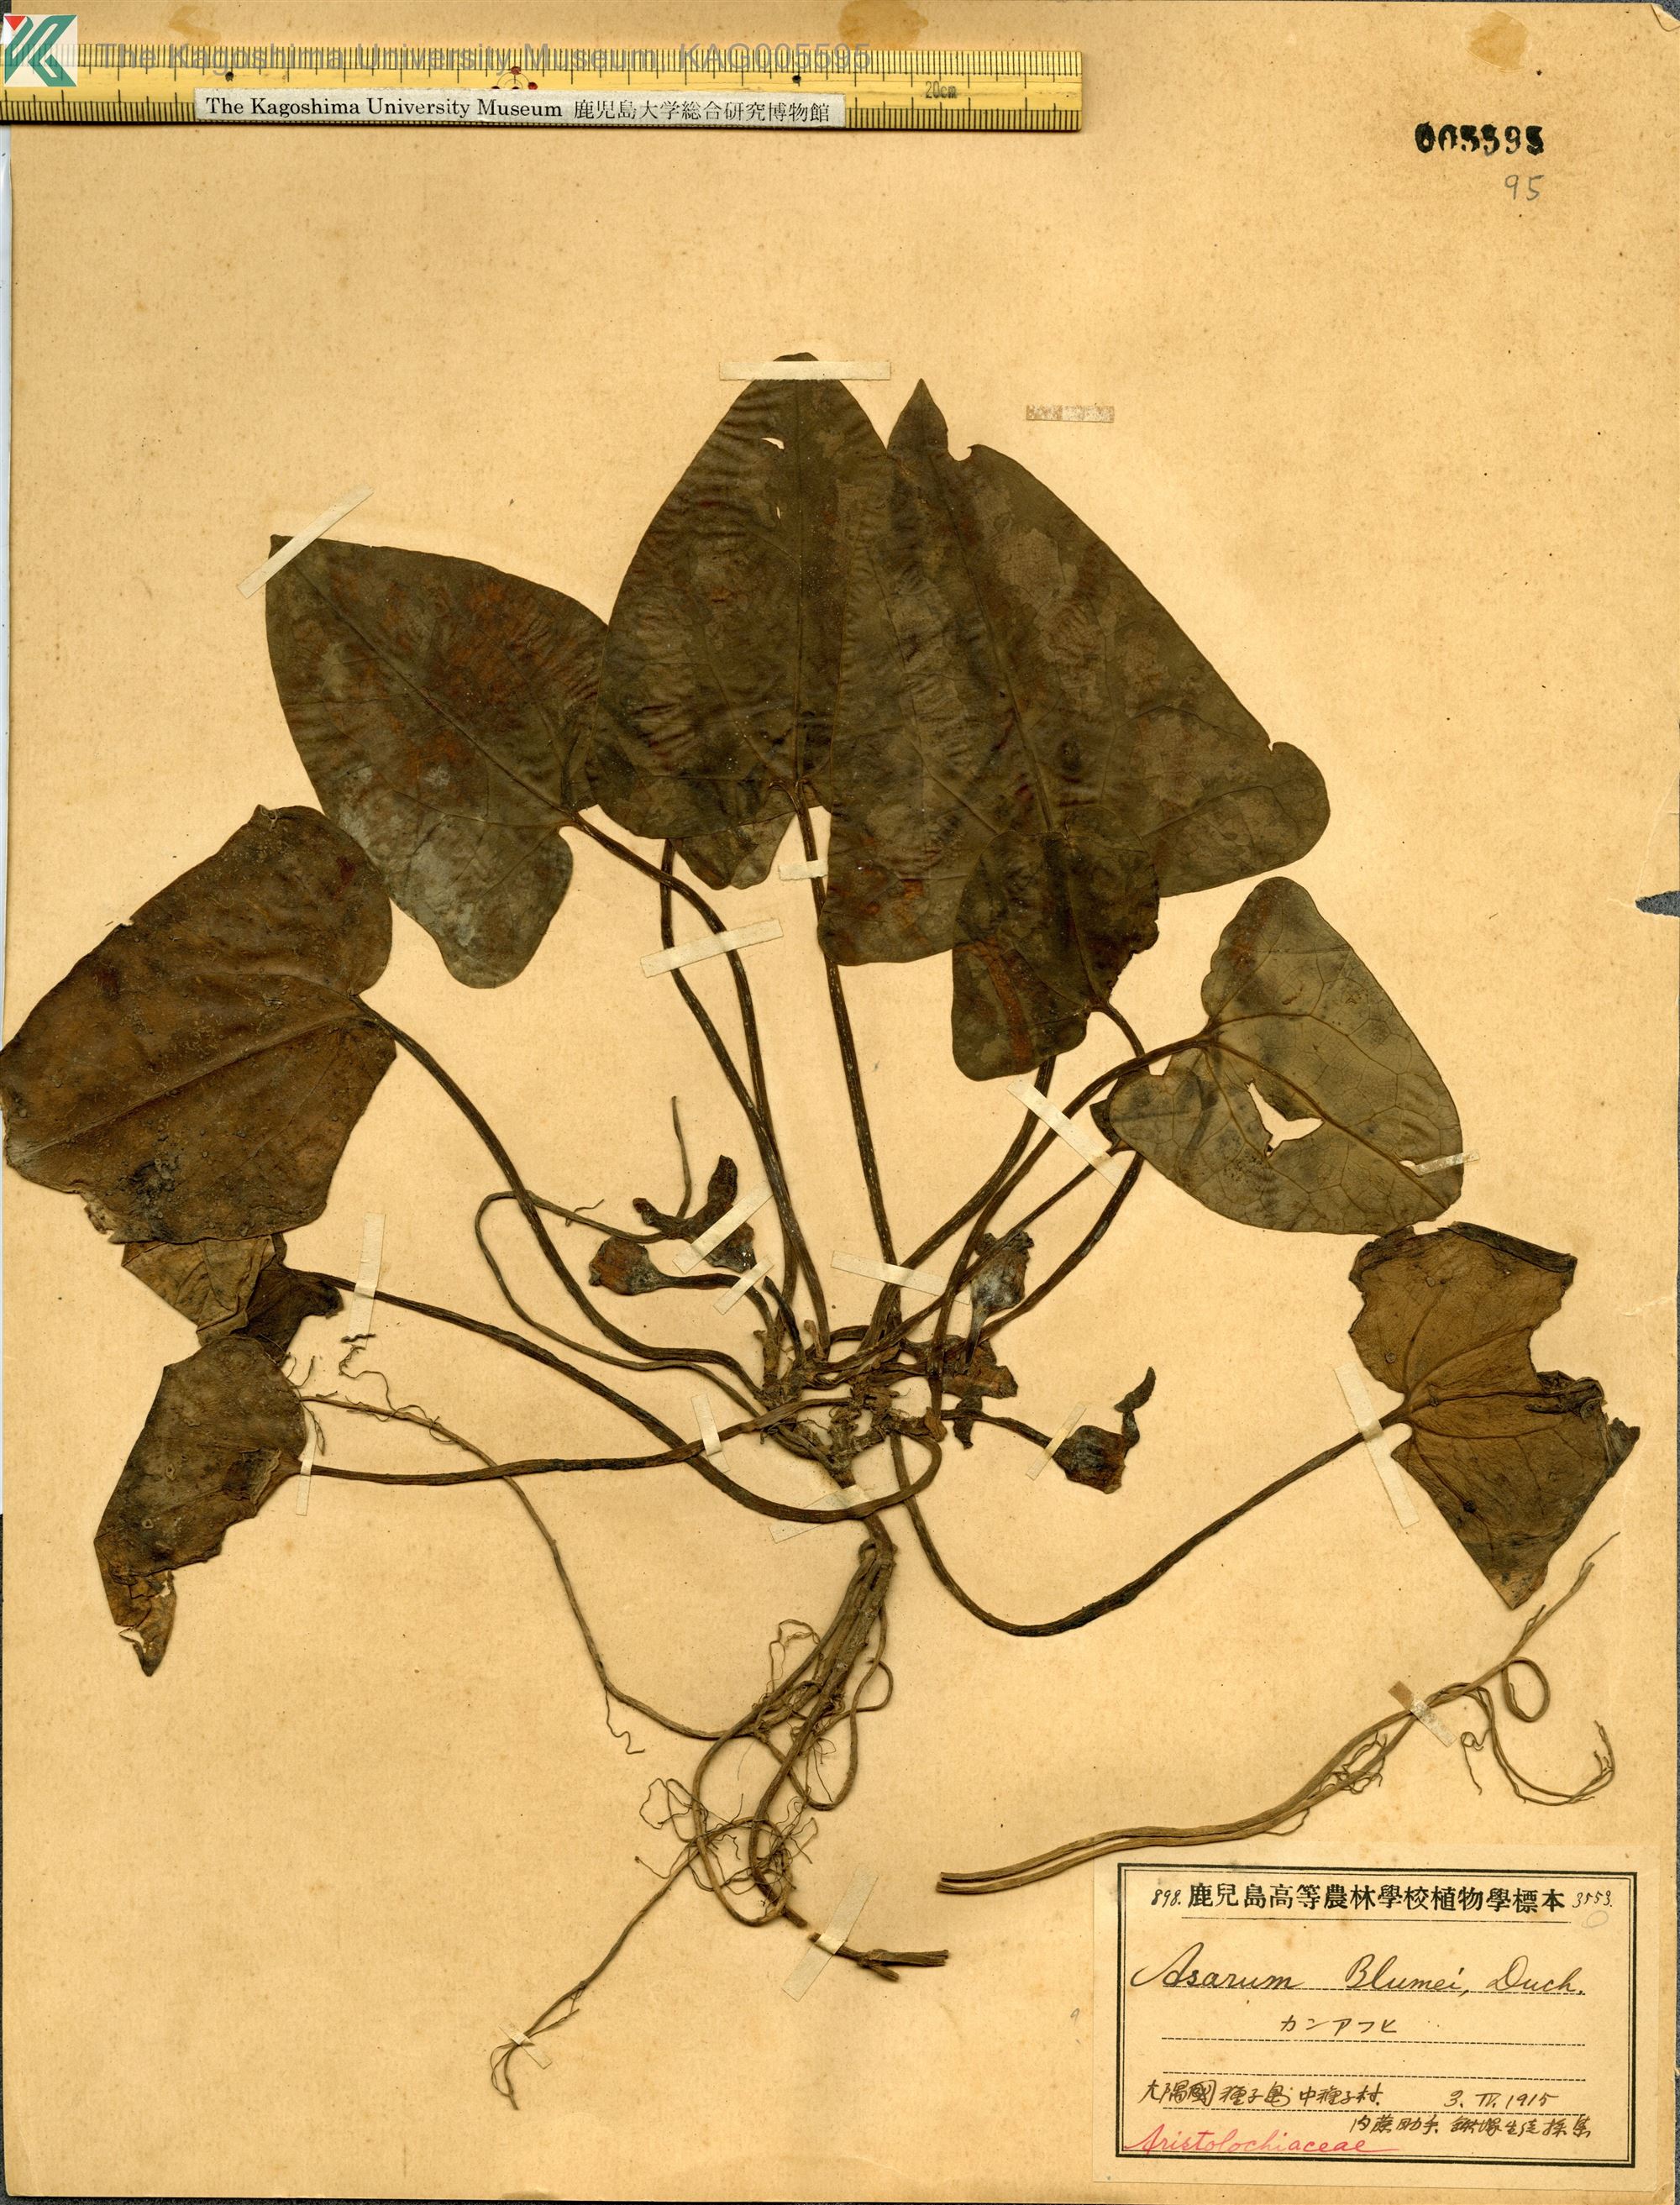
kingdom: Plantae
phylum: Tracheophyta
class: Magnoliopsida
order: Piperales
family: Aristolochiaceae
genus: Asarum
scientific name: Asarum kumageanum
